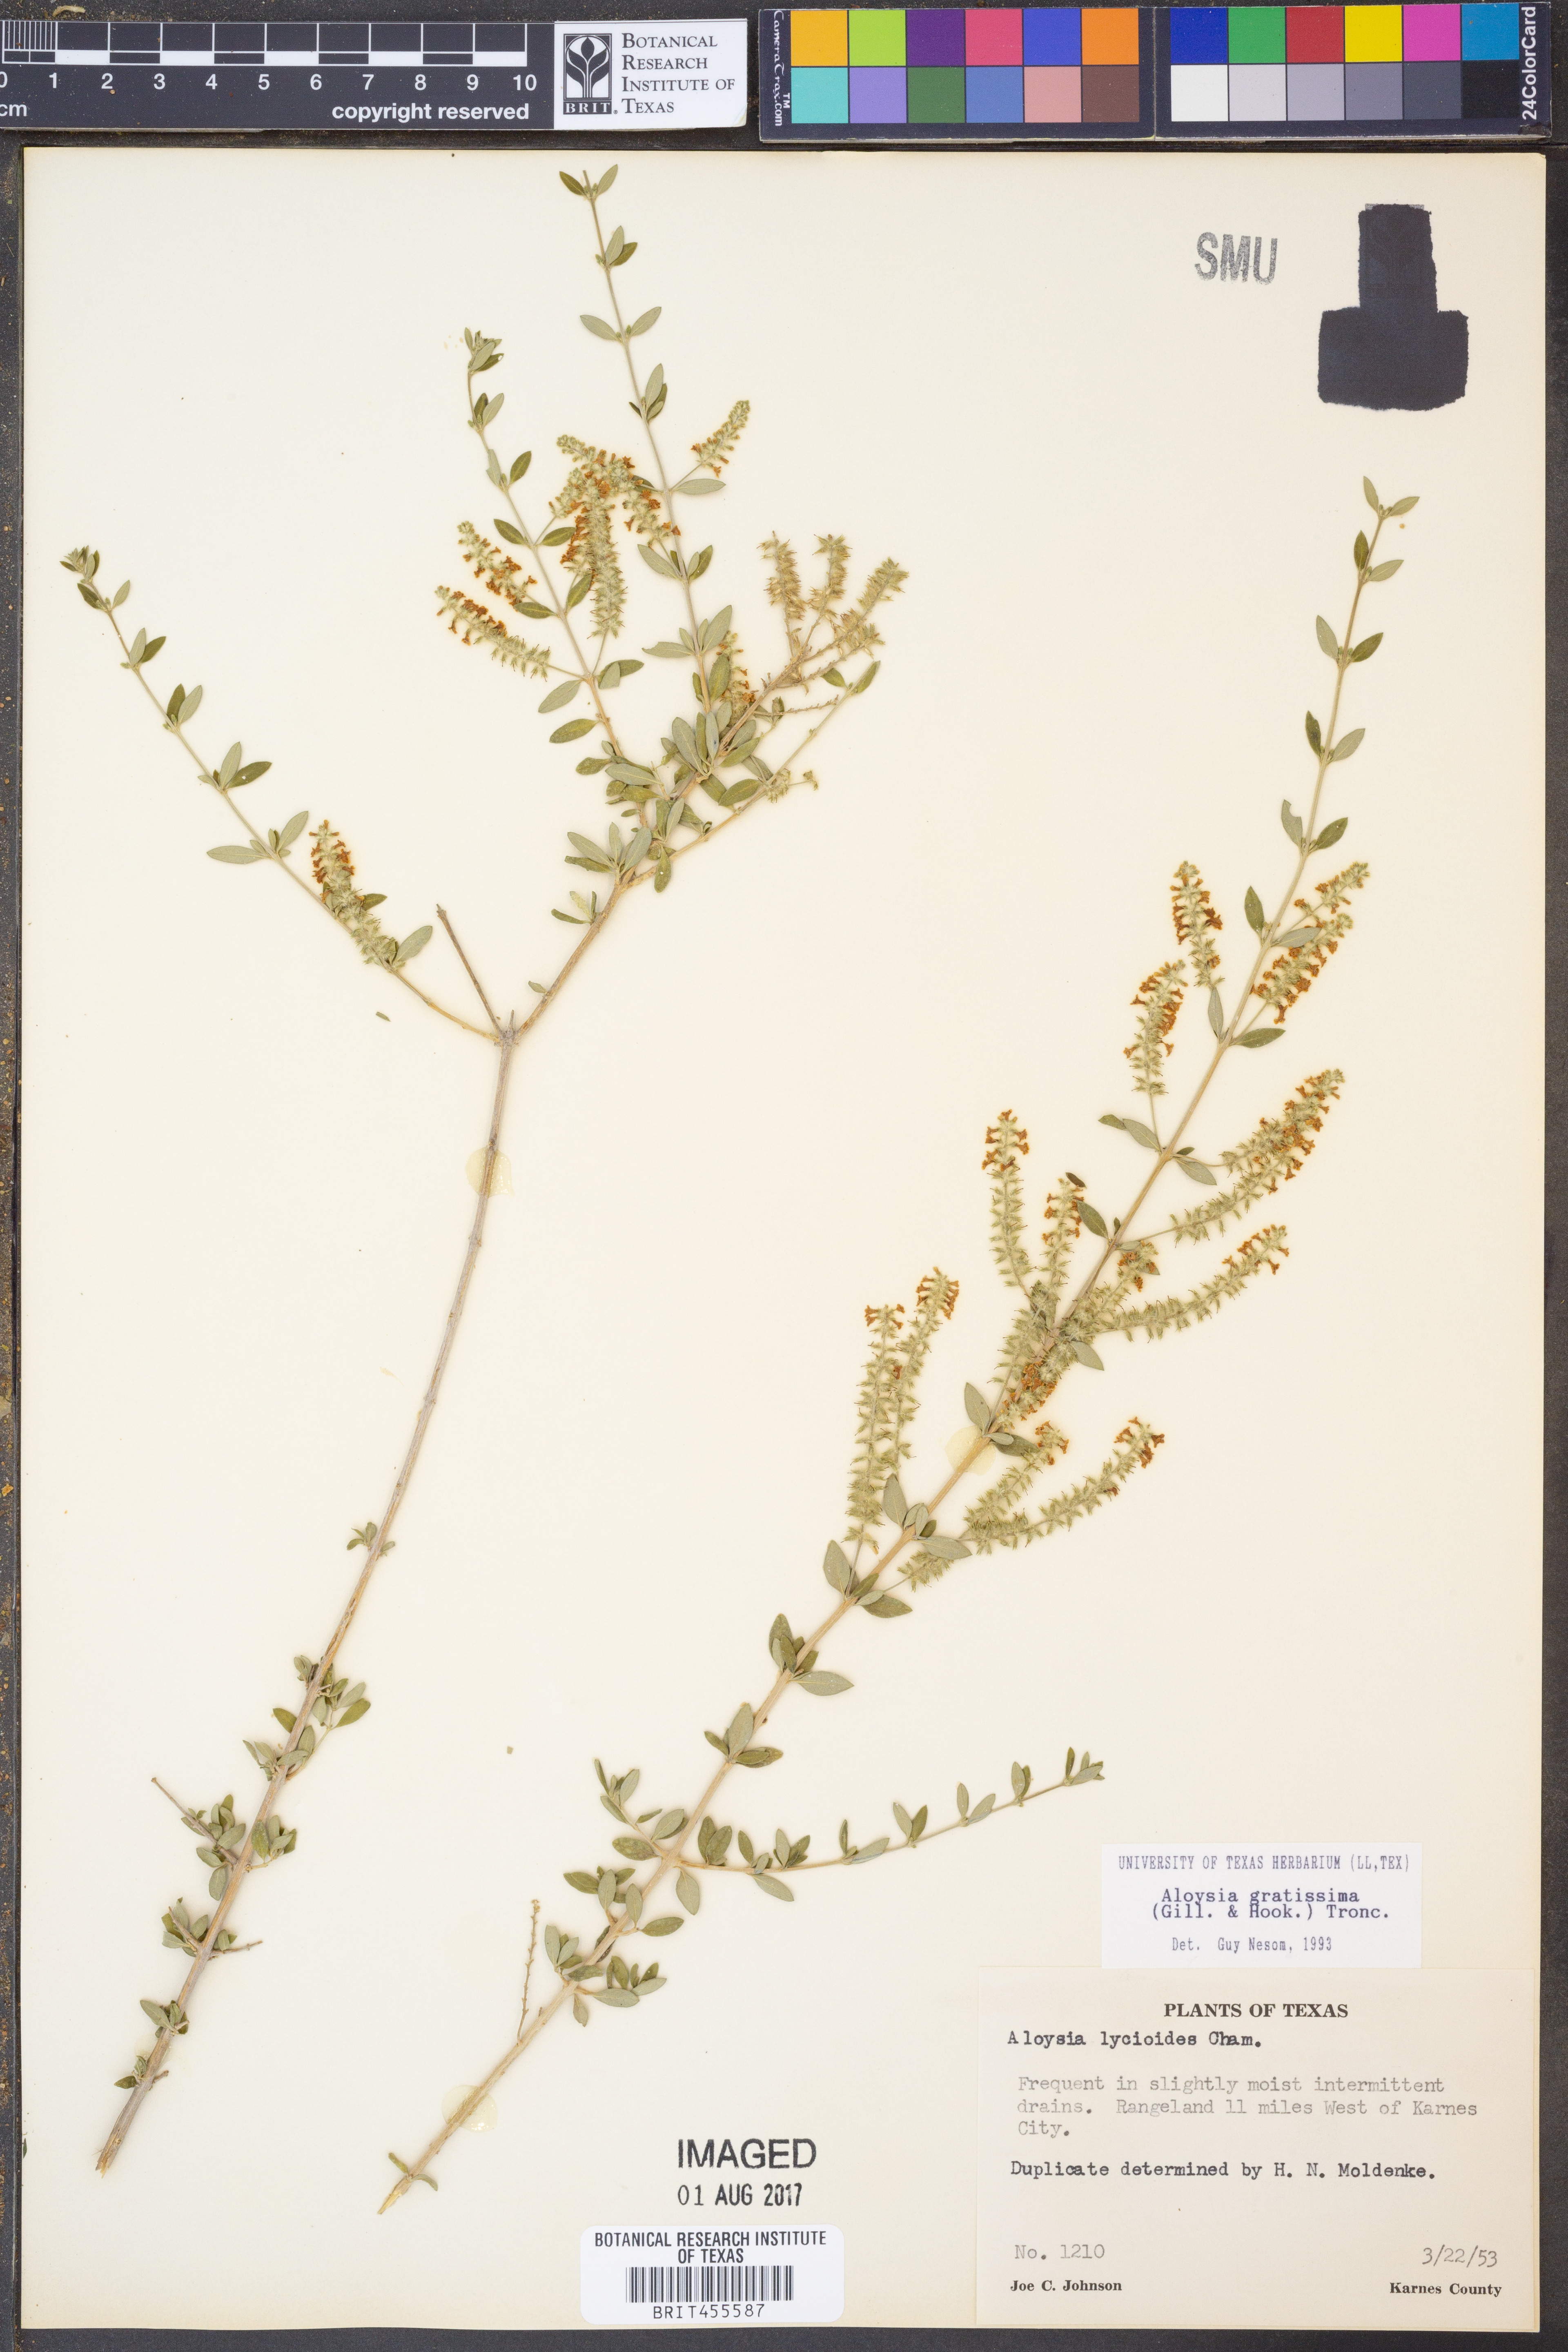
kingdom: Plantae
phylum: Tracheophyta
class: Magnoliopsida
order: Lamiales
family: Verbenaceae
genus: Aloysia
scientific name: Aloysia gratissima
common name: Common bee-brush
